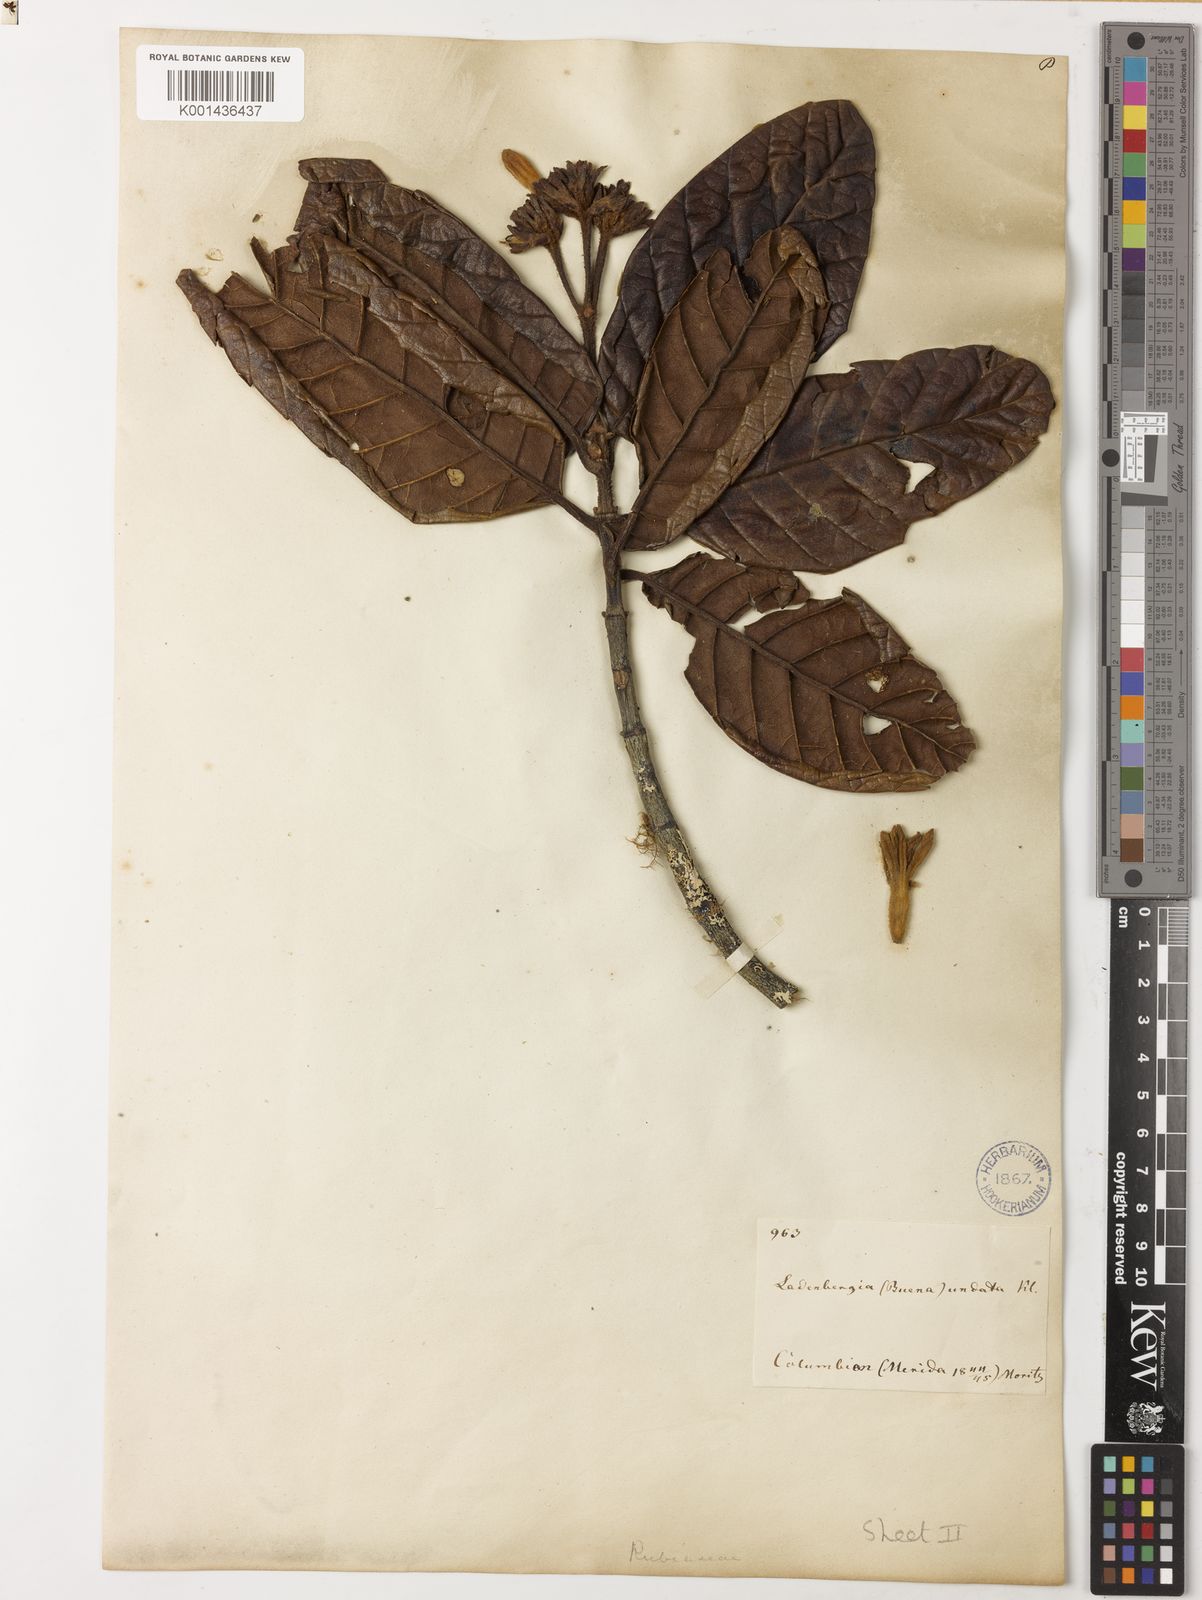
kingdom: Plantae
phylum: Tracheophyta
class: Magnoliopsida
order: Gentianales
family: Rubiaceae
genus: Ladenbergia
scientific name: Ladenbergia undata
